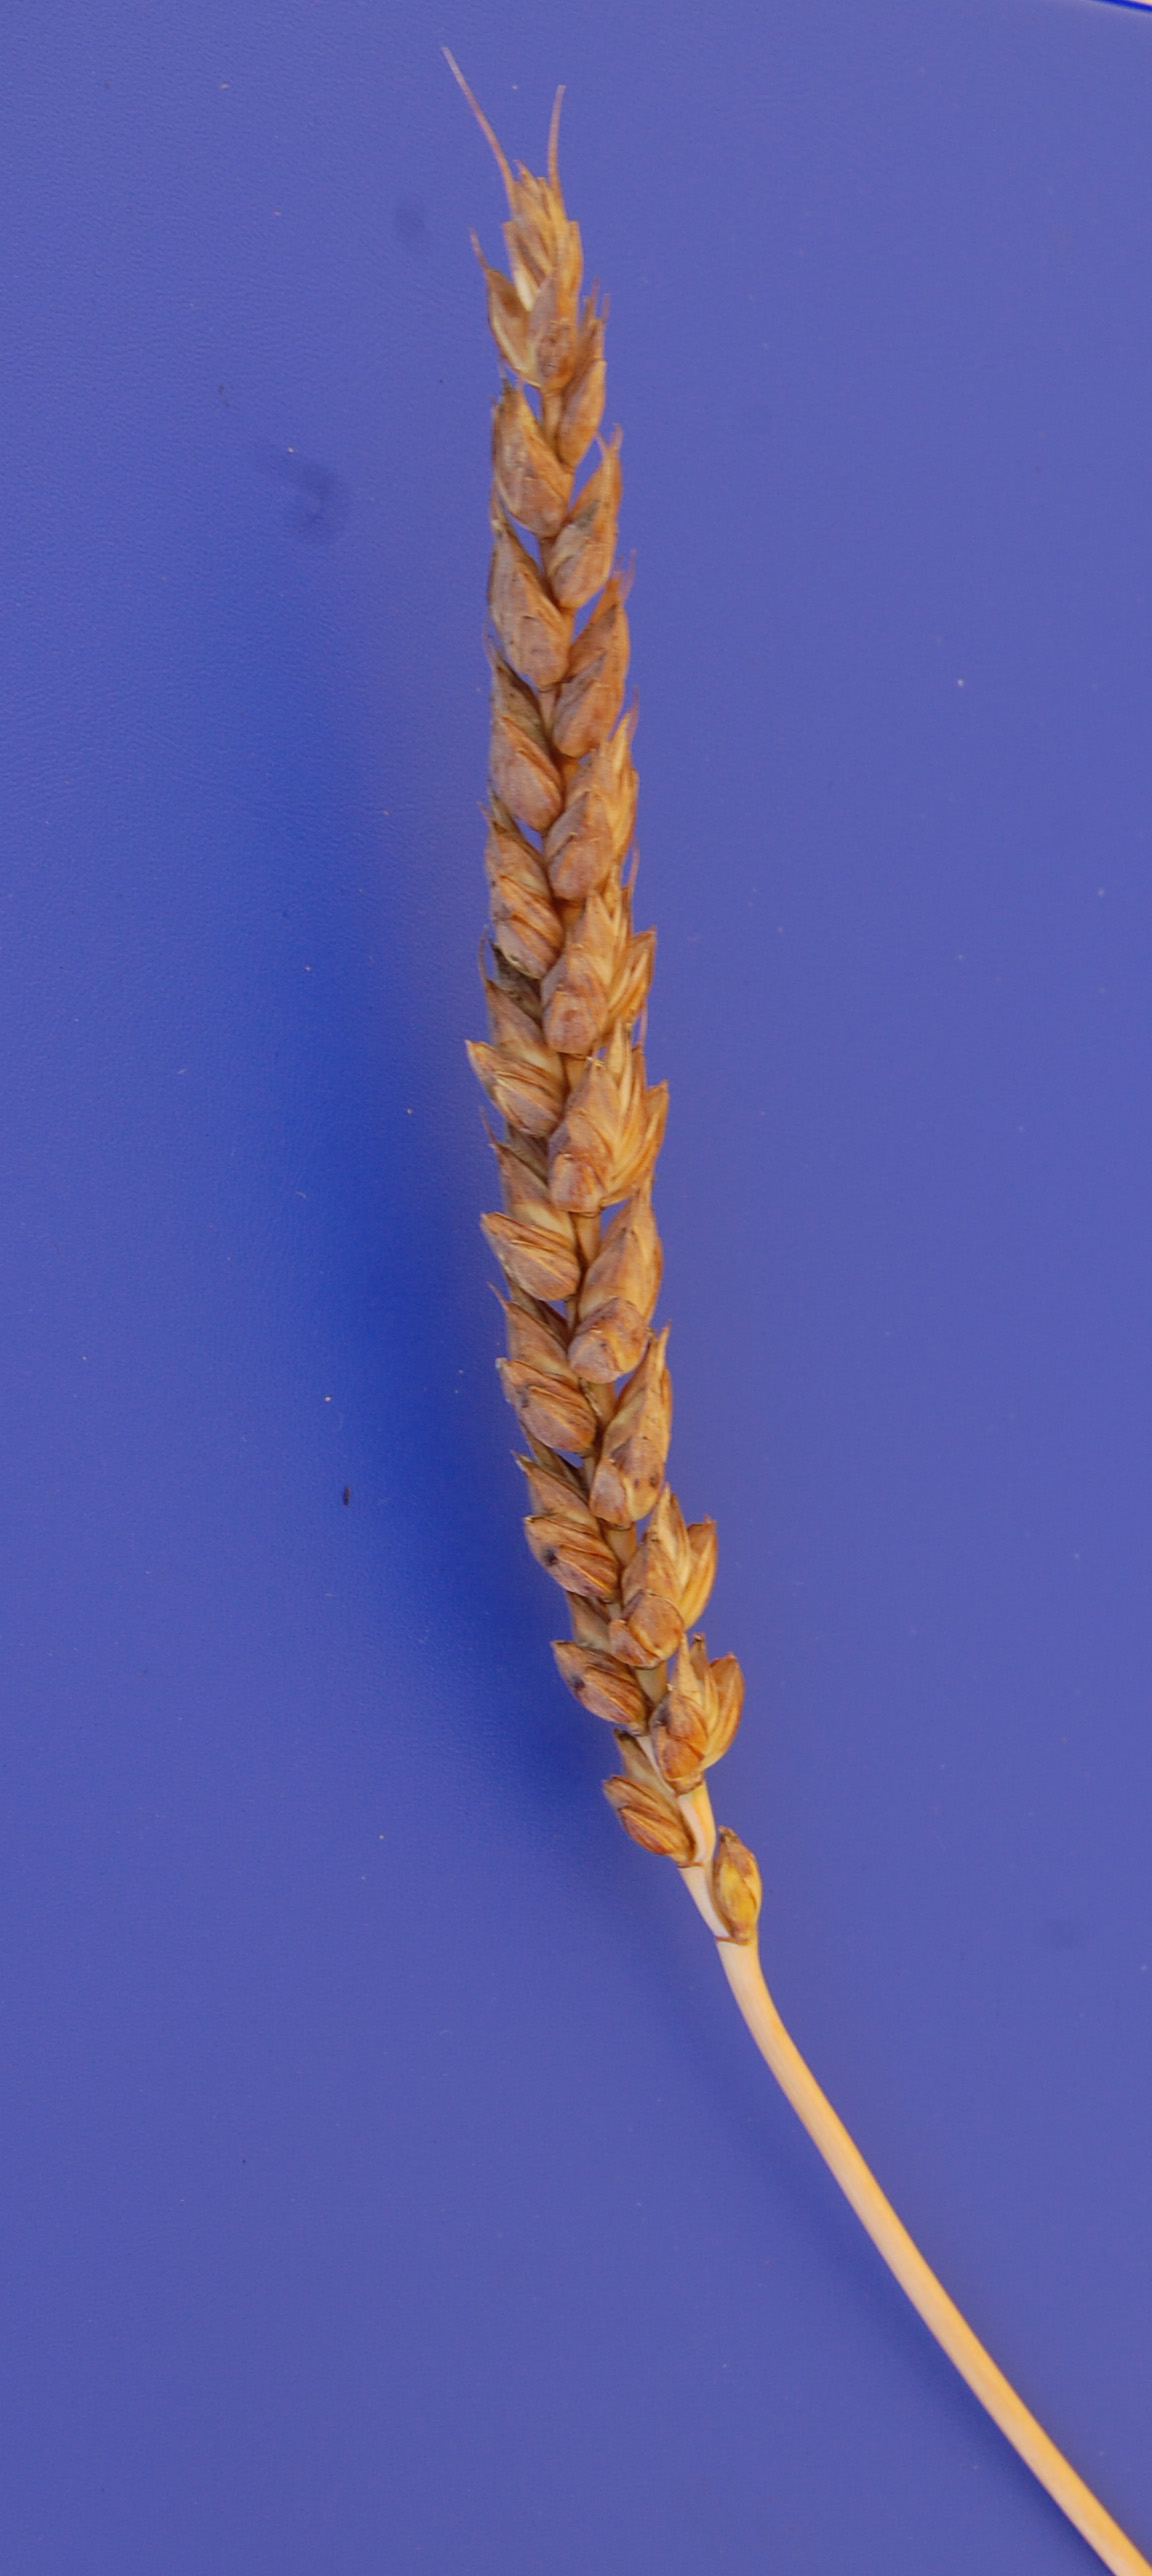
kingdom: Plantae
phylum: Tracheophyta
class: Liliopsida
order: Poales
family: Poaceae
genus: Triticum
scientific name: Triticum aestivum
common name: Common wheat
